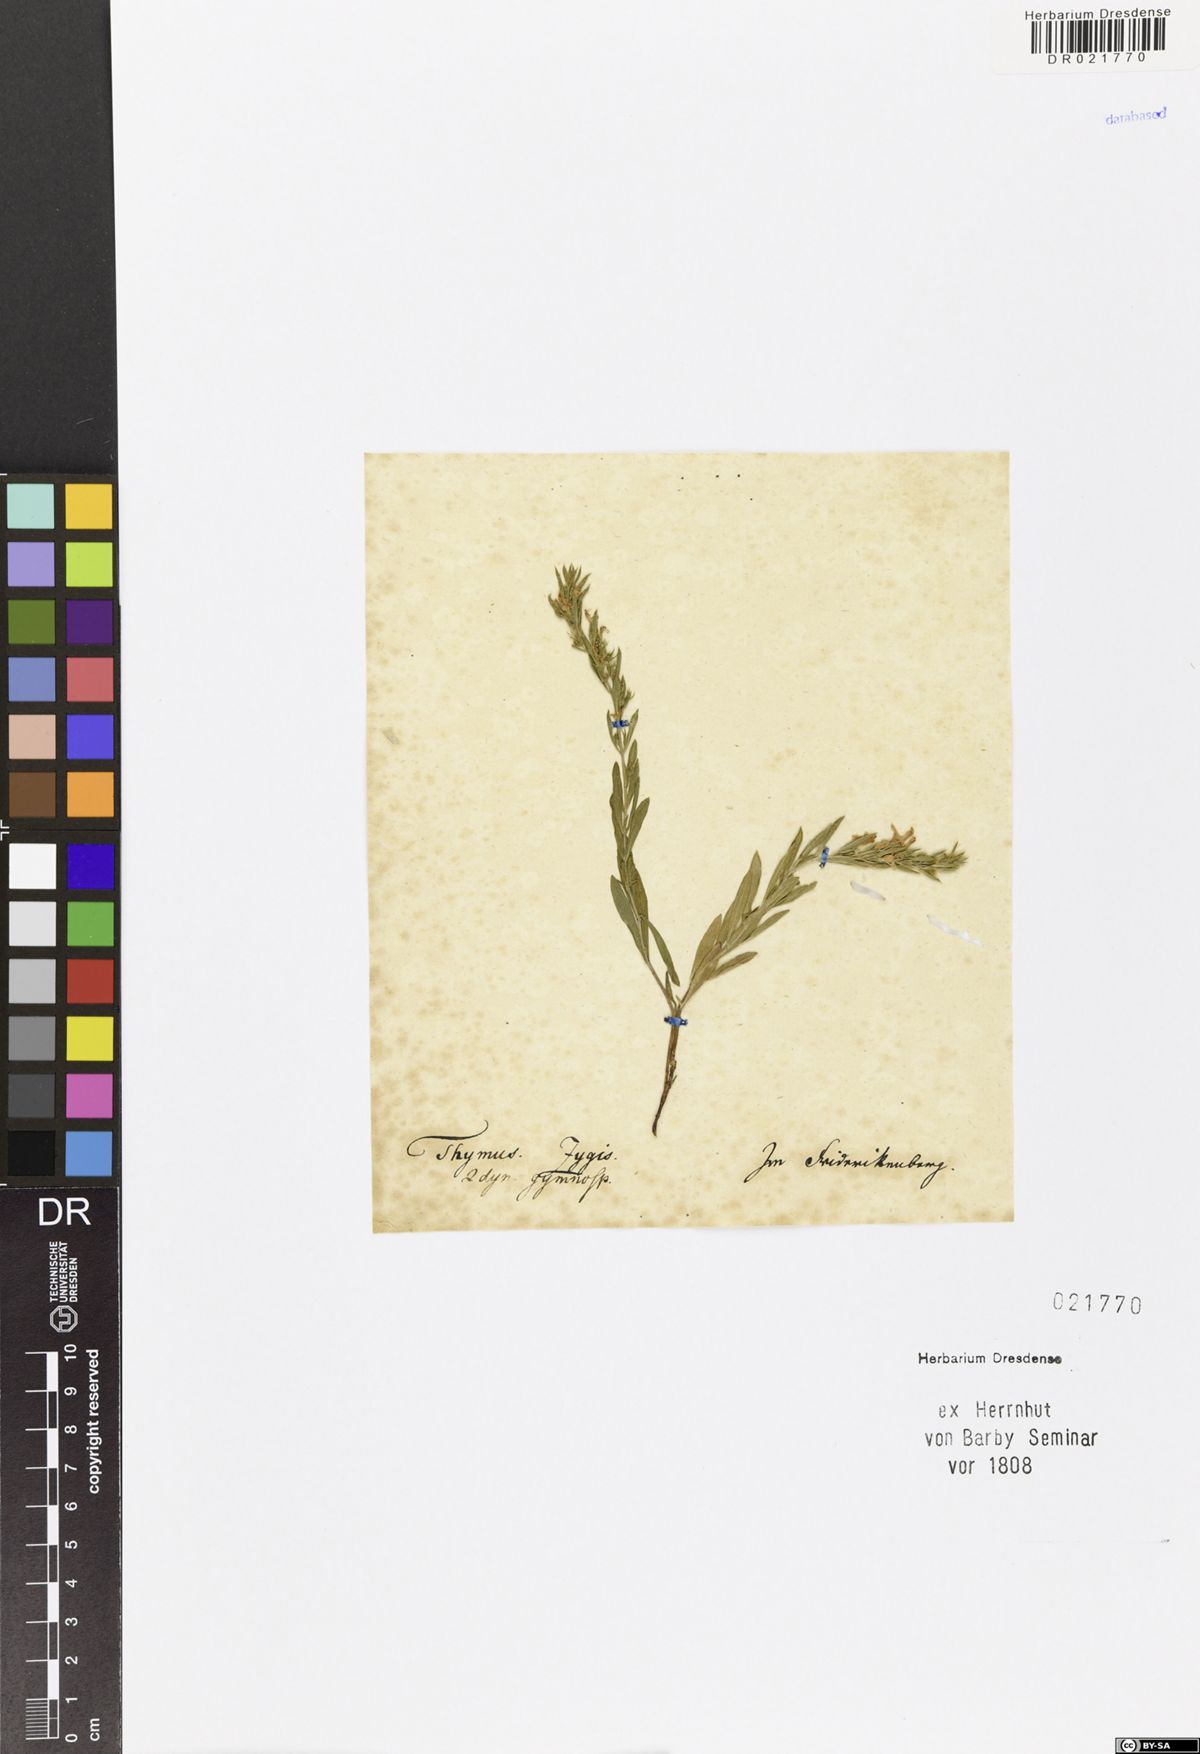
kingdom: Plantae
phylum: Tracheophyta
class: Magnoliopsida
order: Lamiales
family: Lamiaceae
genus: Thymus
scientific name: Thymus zygis
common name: White thyme
